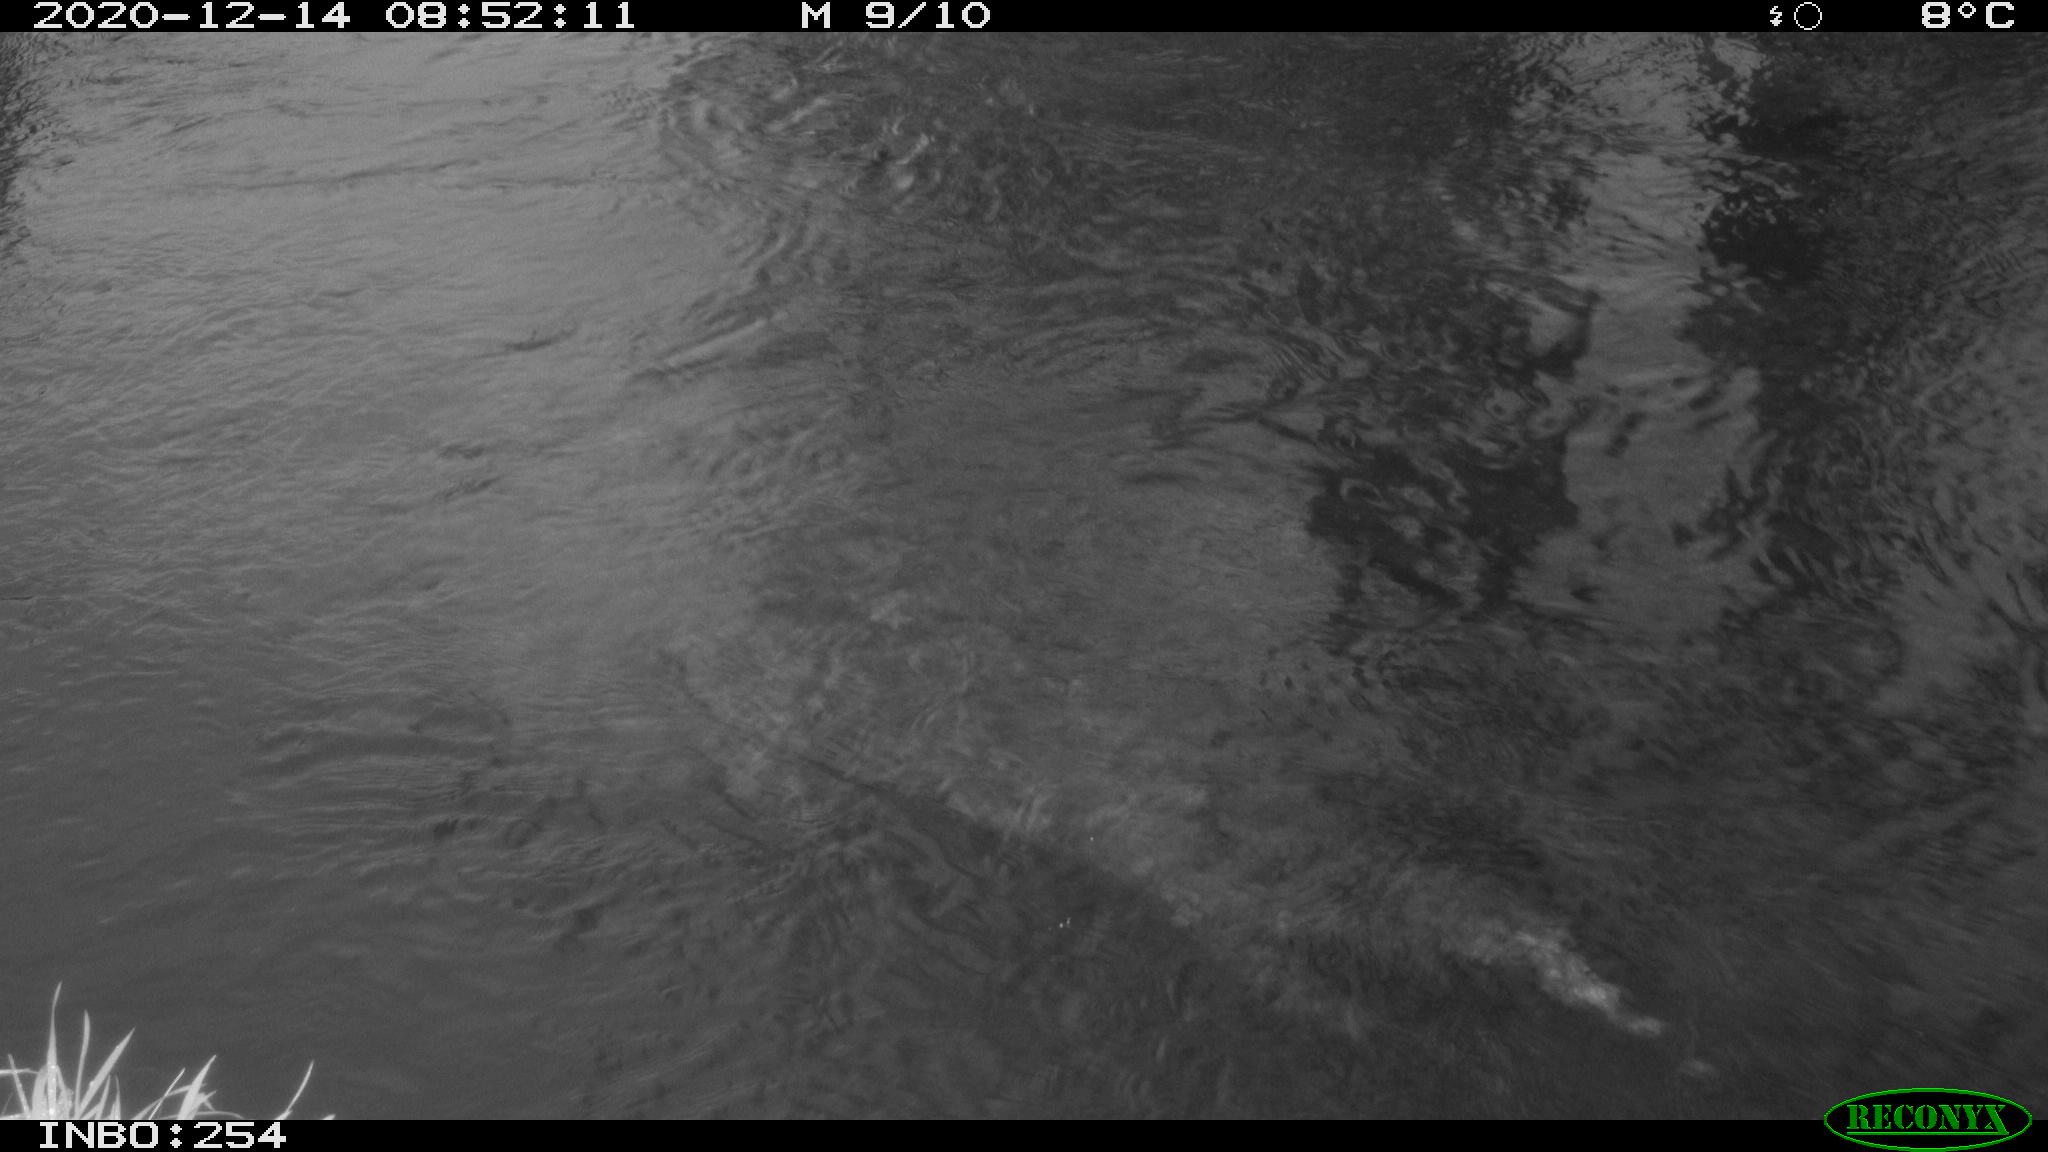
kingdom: Animalia
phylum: Chordata
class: Aves
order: Gruiformes
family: Rallidae
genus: Gallinula
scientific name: Gallinula chloropus
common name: Common moorhen
